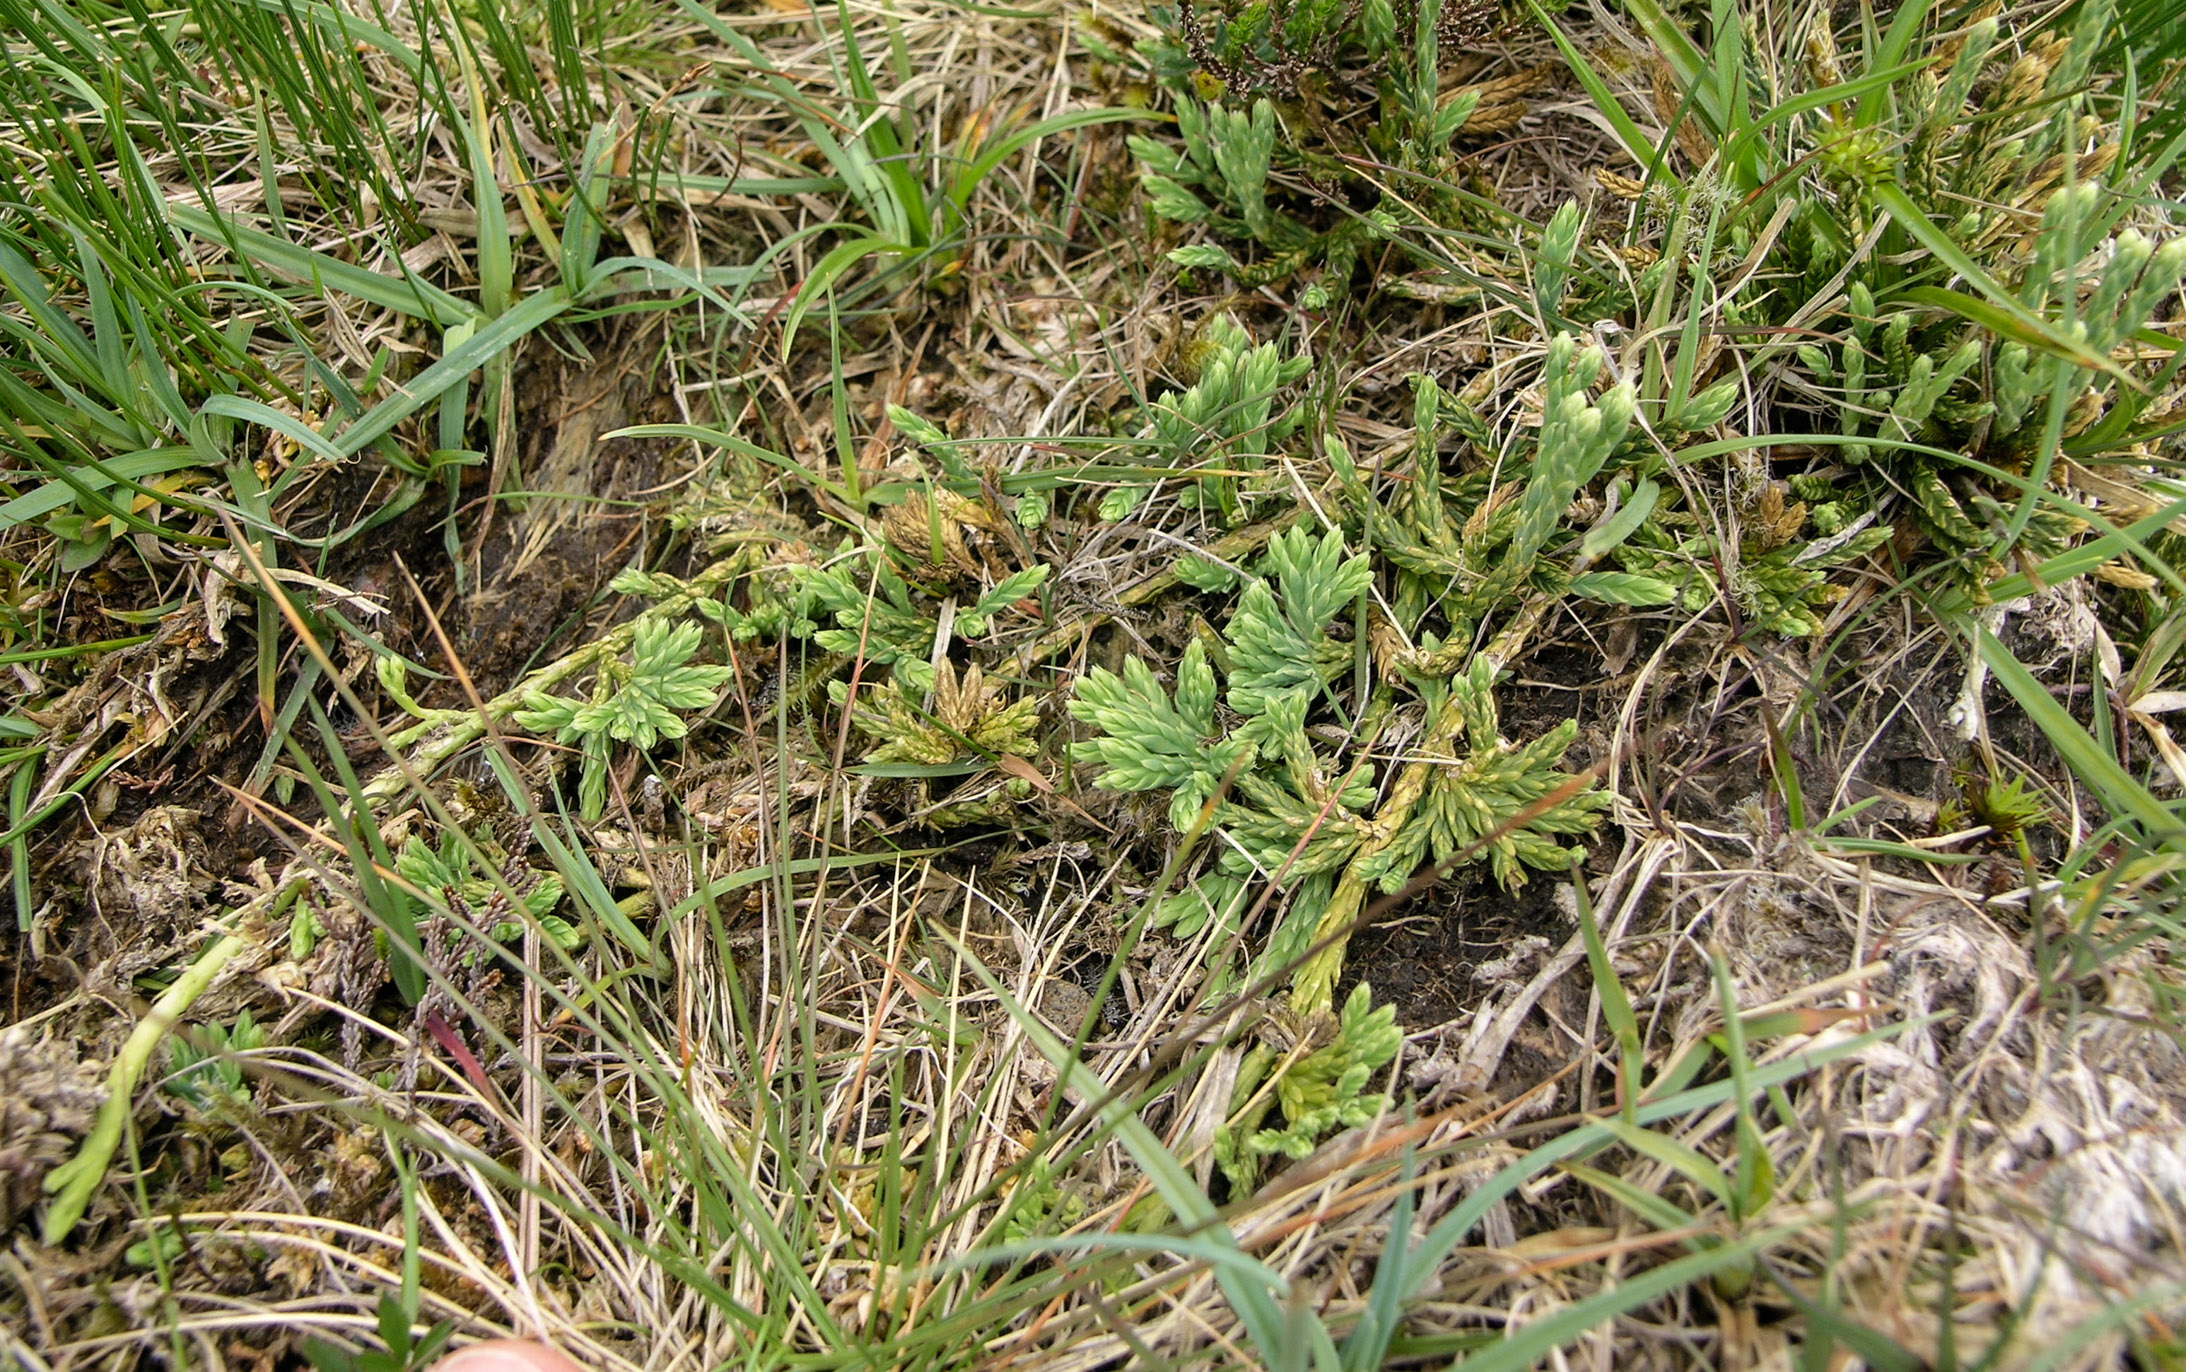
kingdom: Plantae
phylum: Tracheophyta
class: Lycopodiopsida
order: Lycopodiales
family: Lycopodiaceae
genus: Diphasiastrum
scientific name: Diphasiastrum alpinum
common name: Alpine clubmoss
